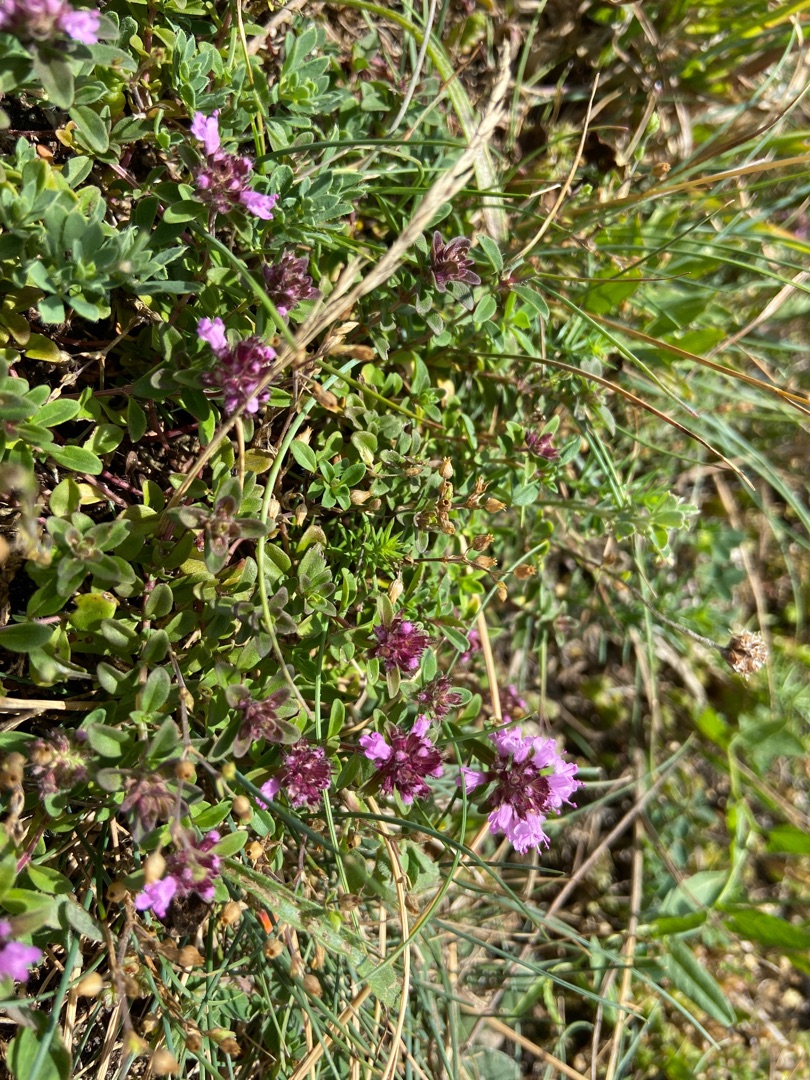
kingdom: Plantae
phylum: Tracheophyta
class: Magnoliopsida
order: Lamiales
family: Lamiaceae
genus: Thymus
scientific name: Thymus pulegioides
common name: Bredbladet timian
